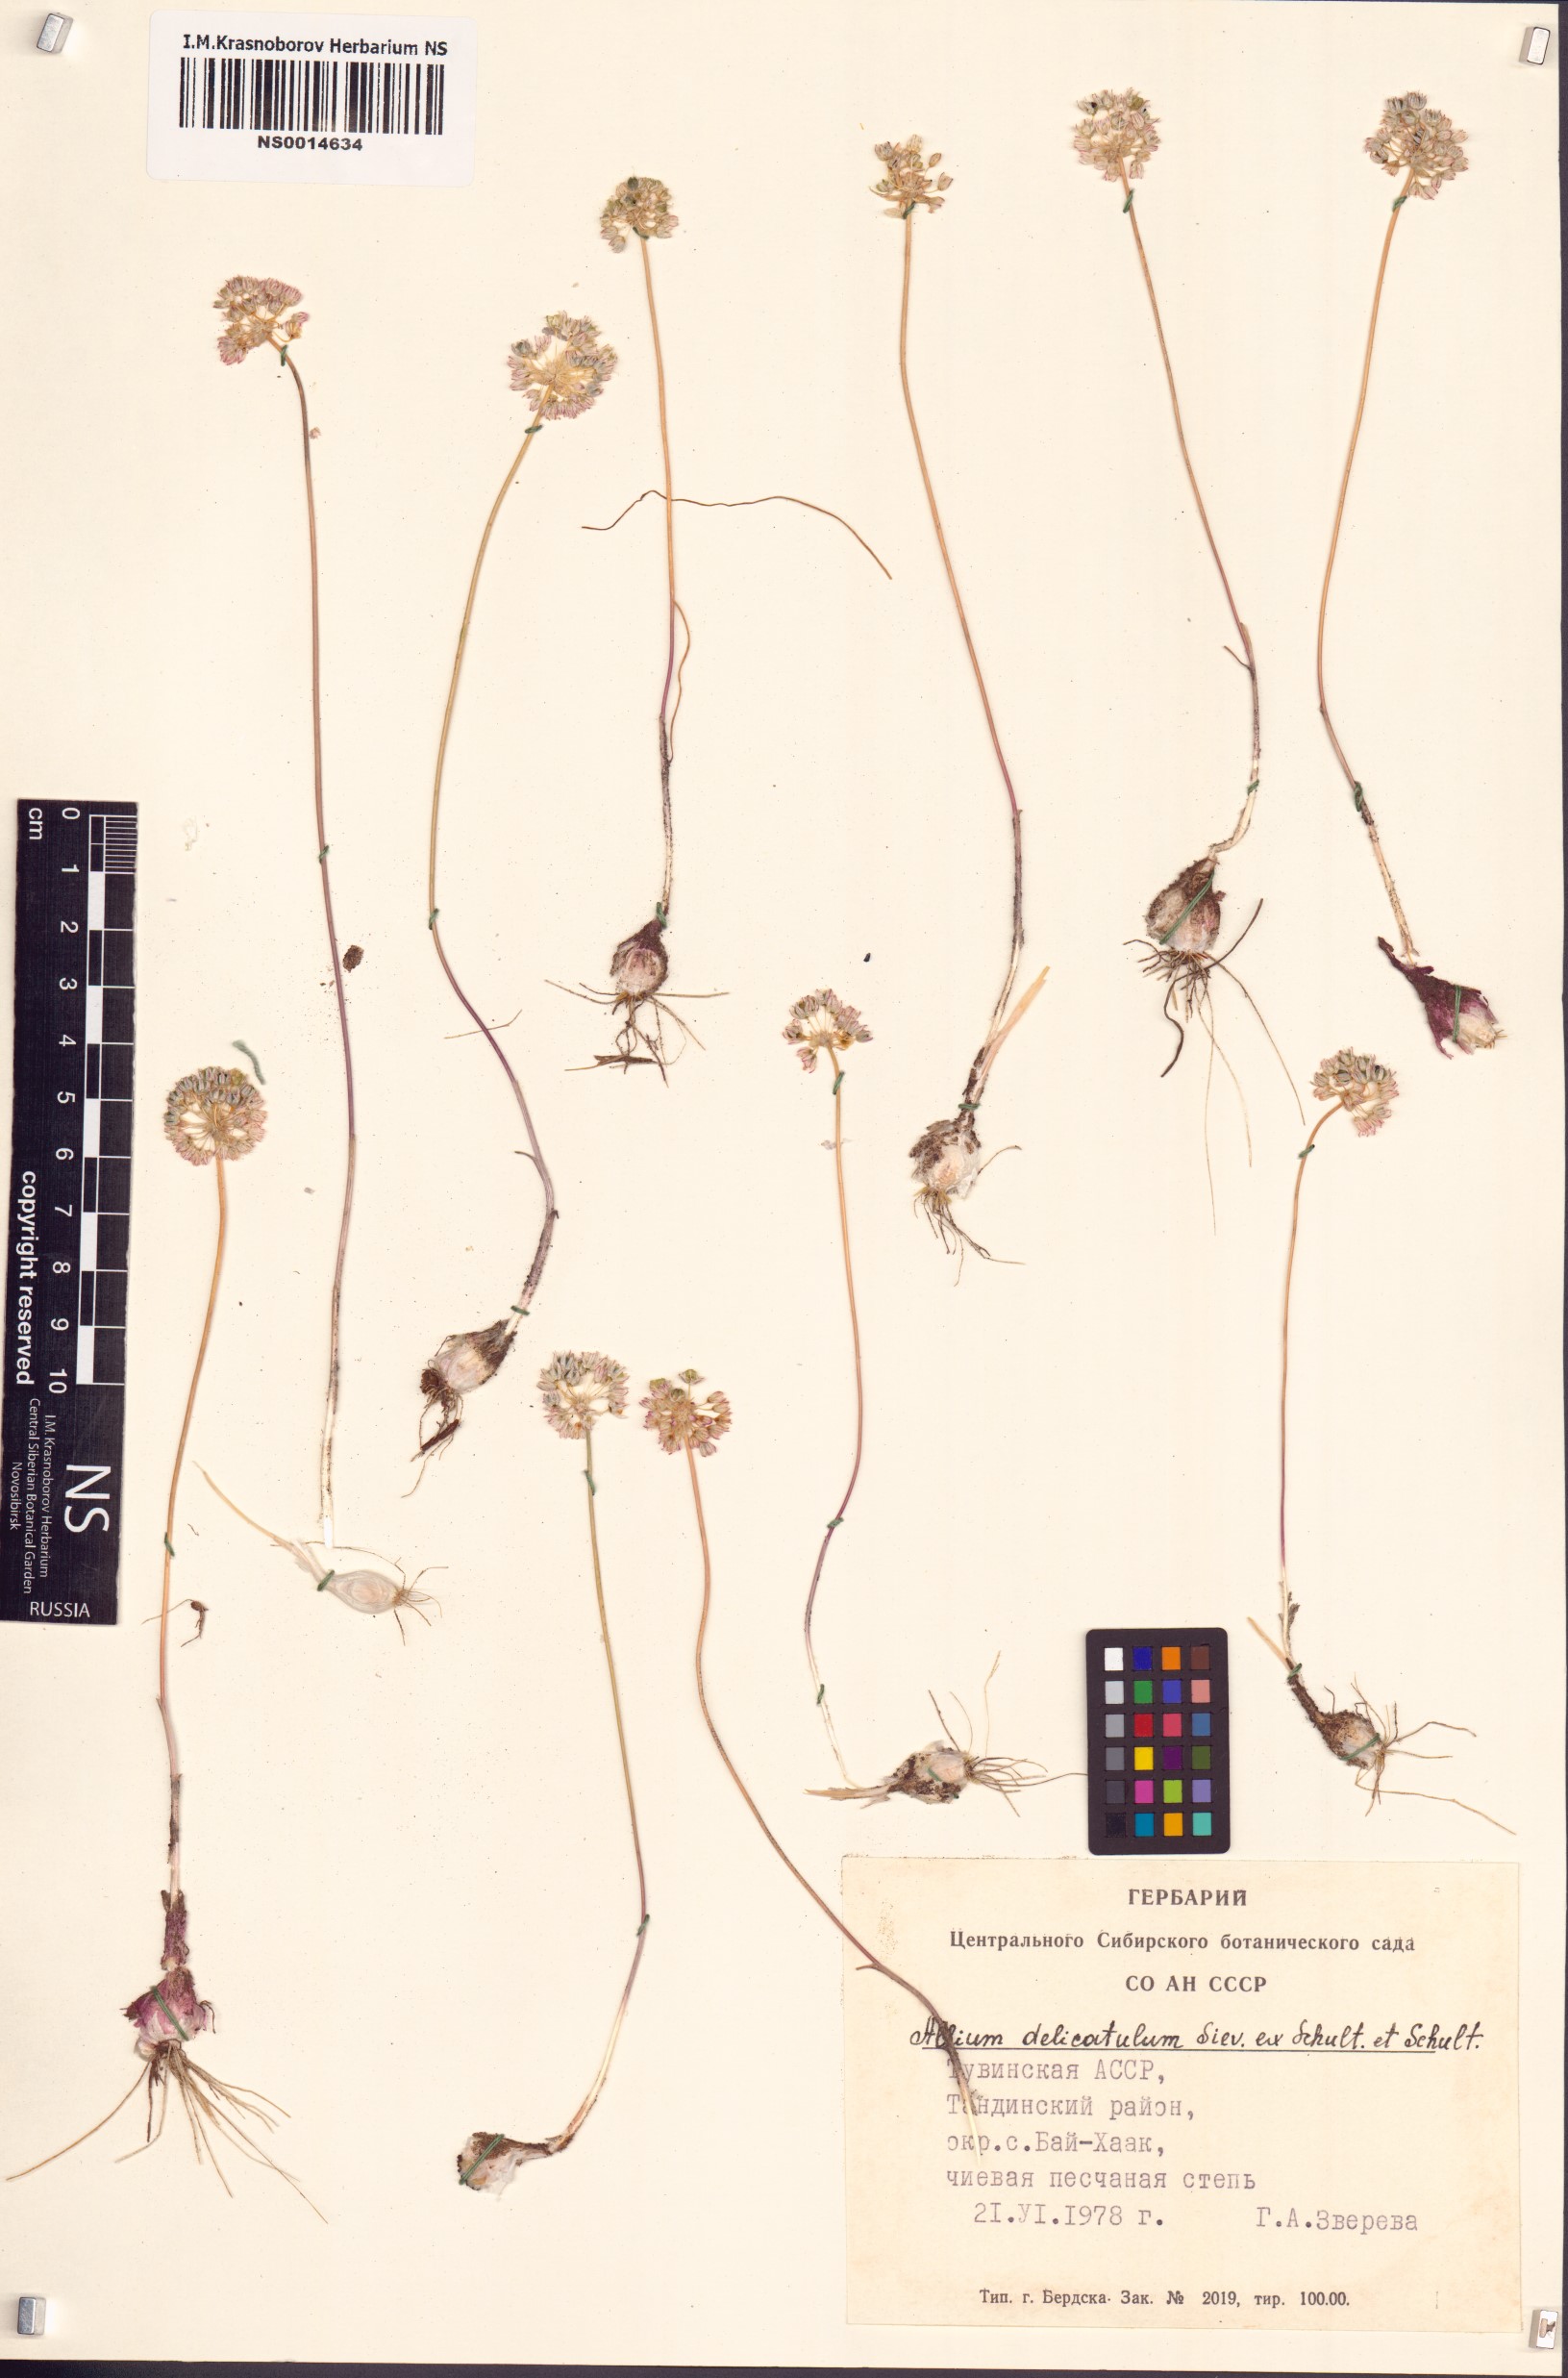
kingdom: Plantae
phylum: Tracheophyta
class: Liliopsida
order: Asparagales
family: Amaryllidaceae
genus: Allium
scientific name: Allium delicatulum
